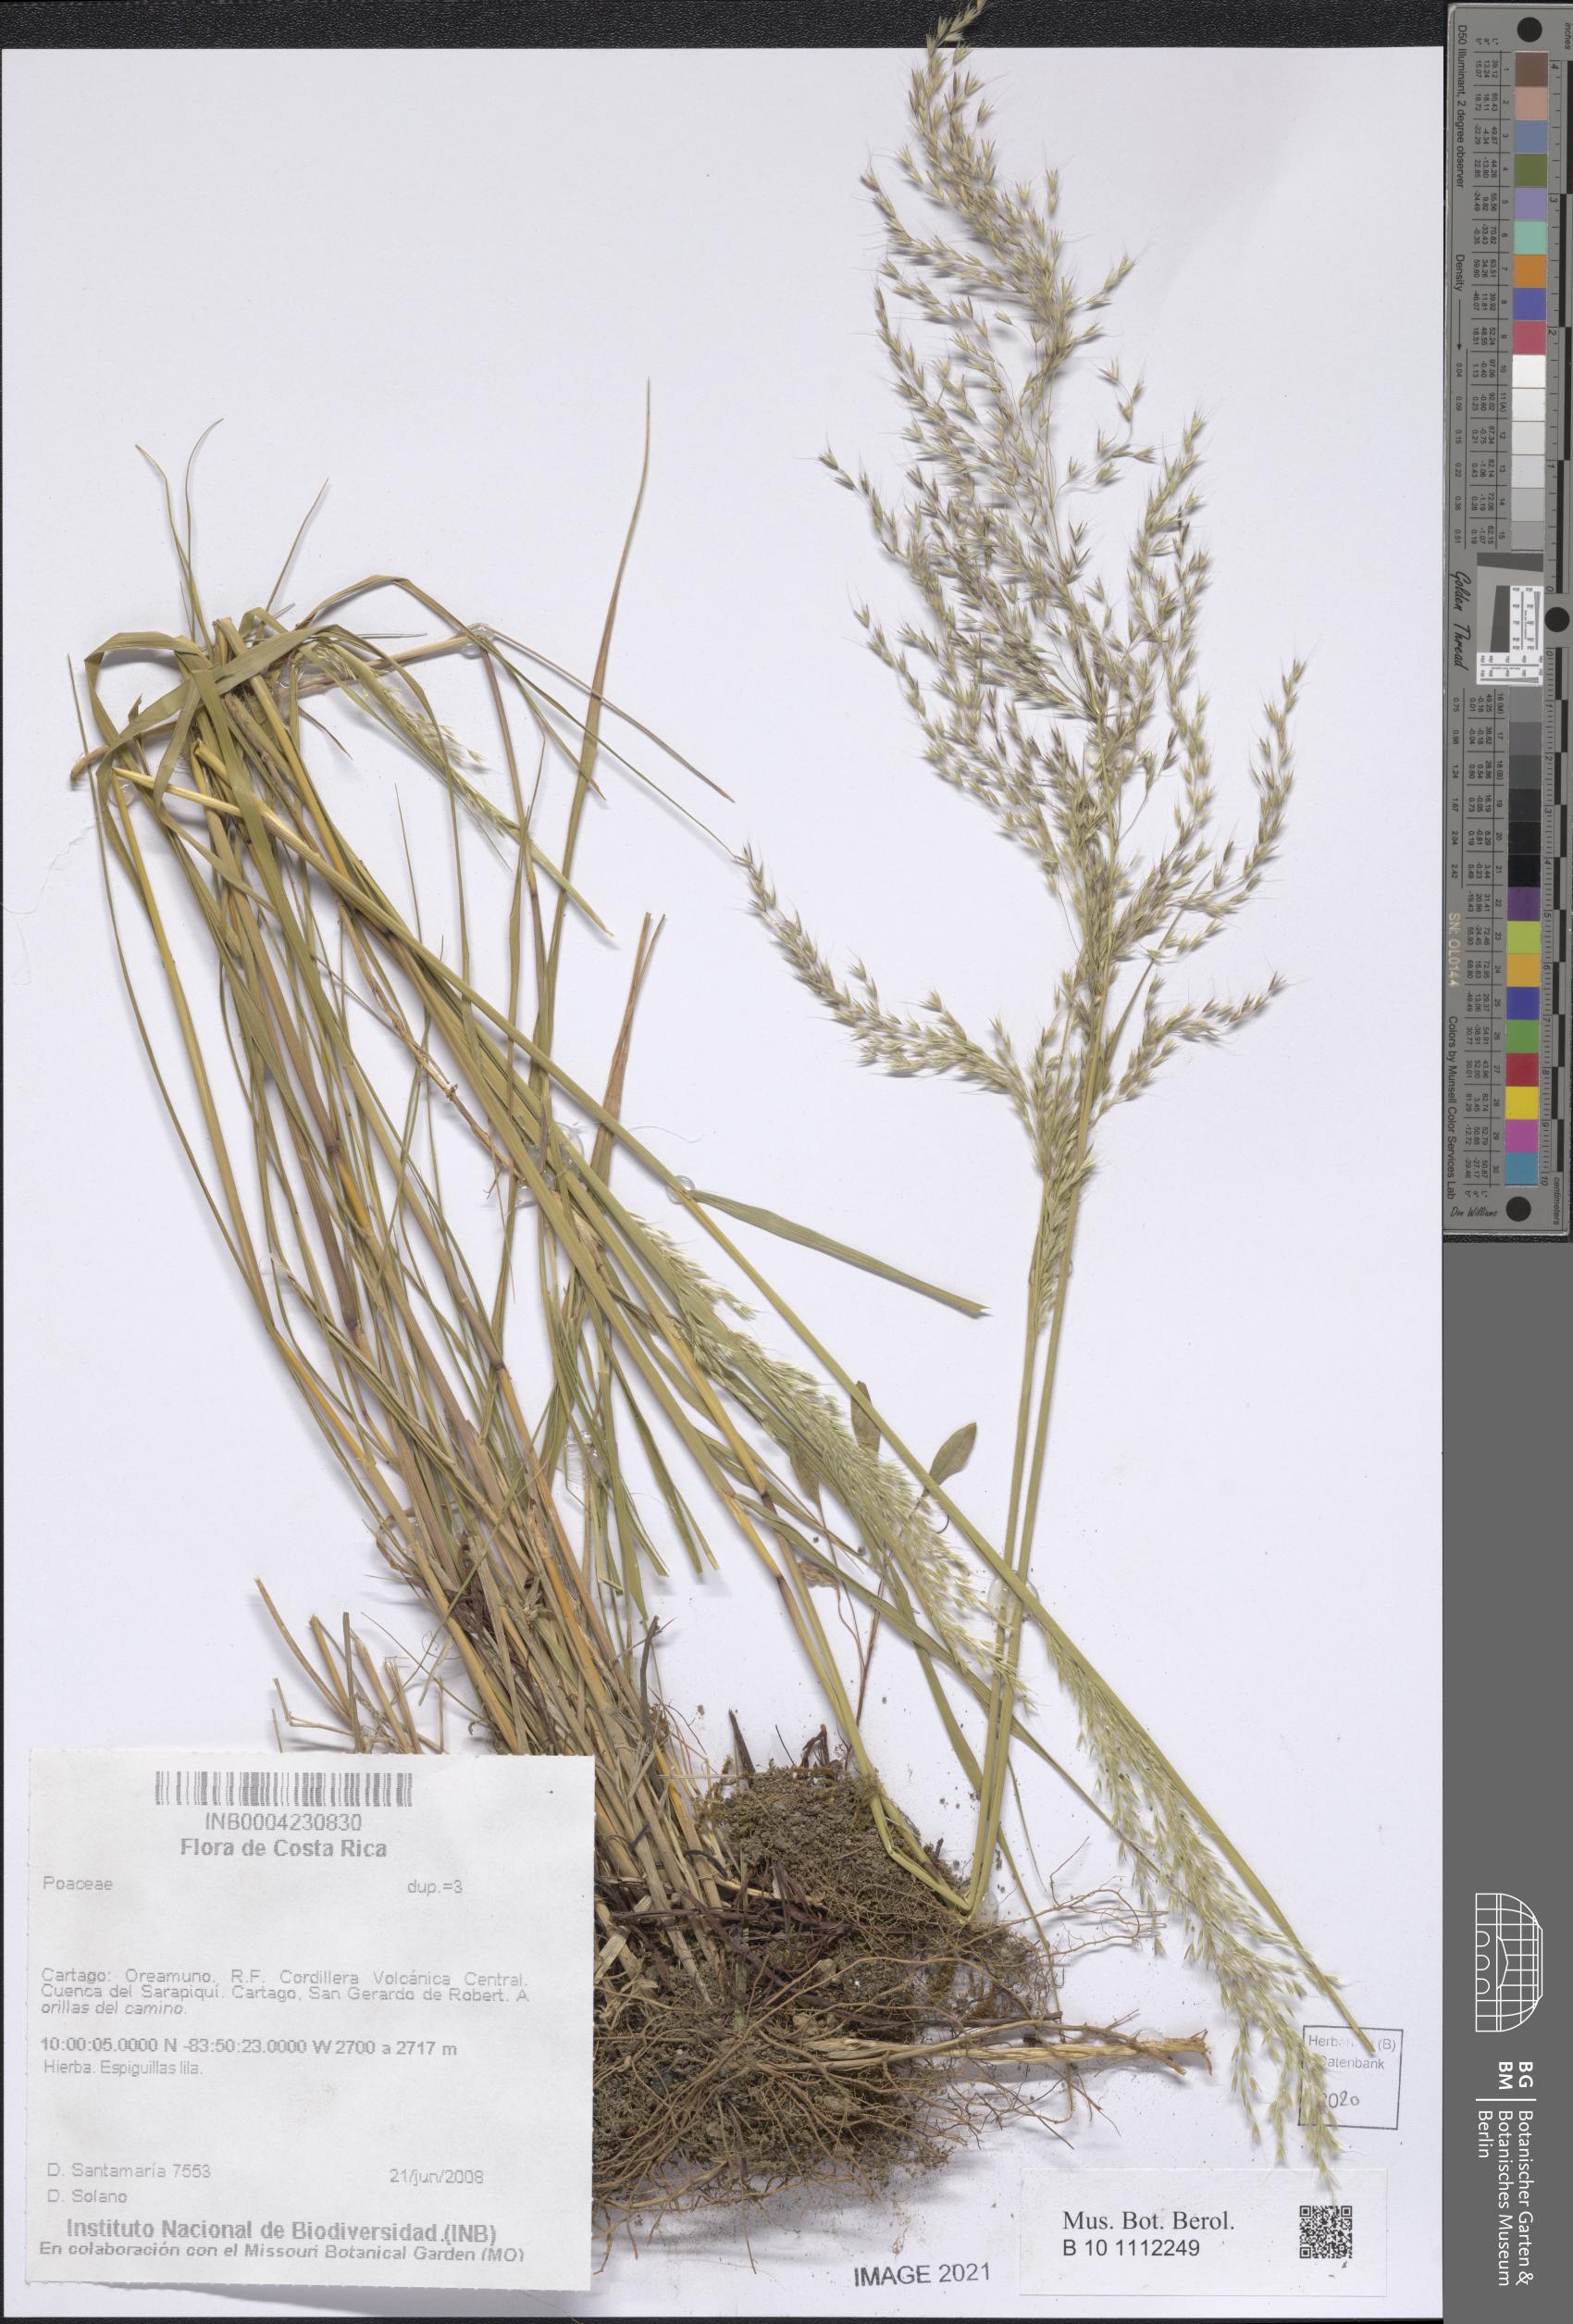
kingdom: Plantae
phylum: Tracheophyta
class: Liliopsida
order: Poales
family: Poaceae
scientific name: Poaceae
